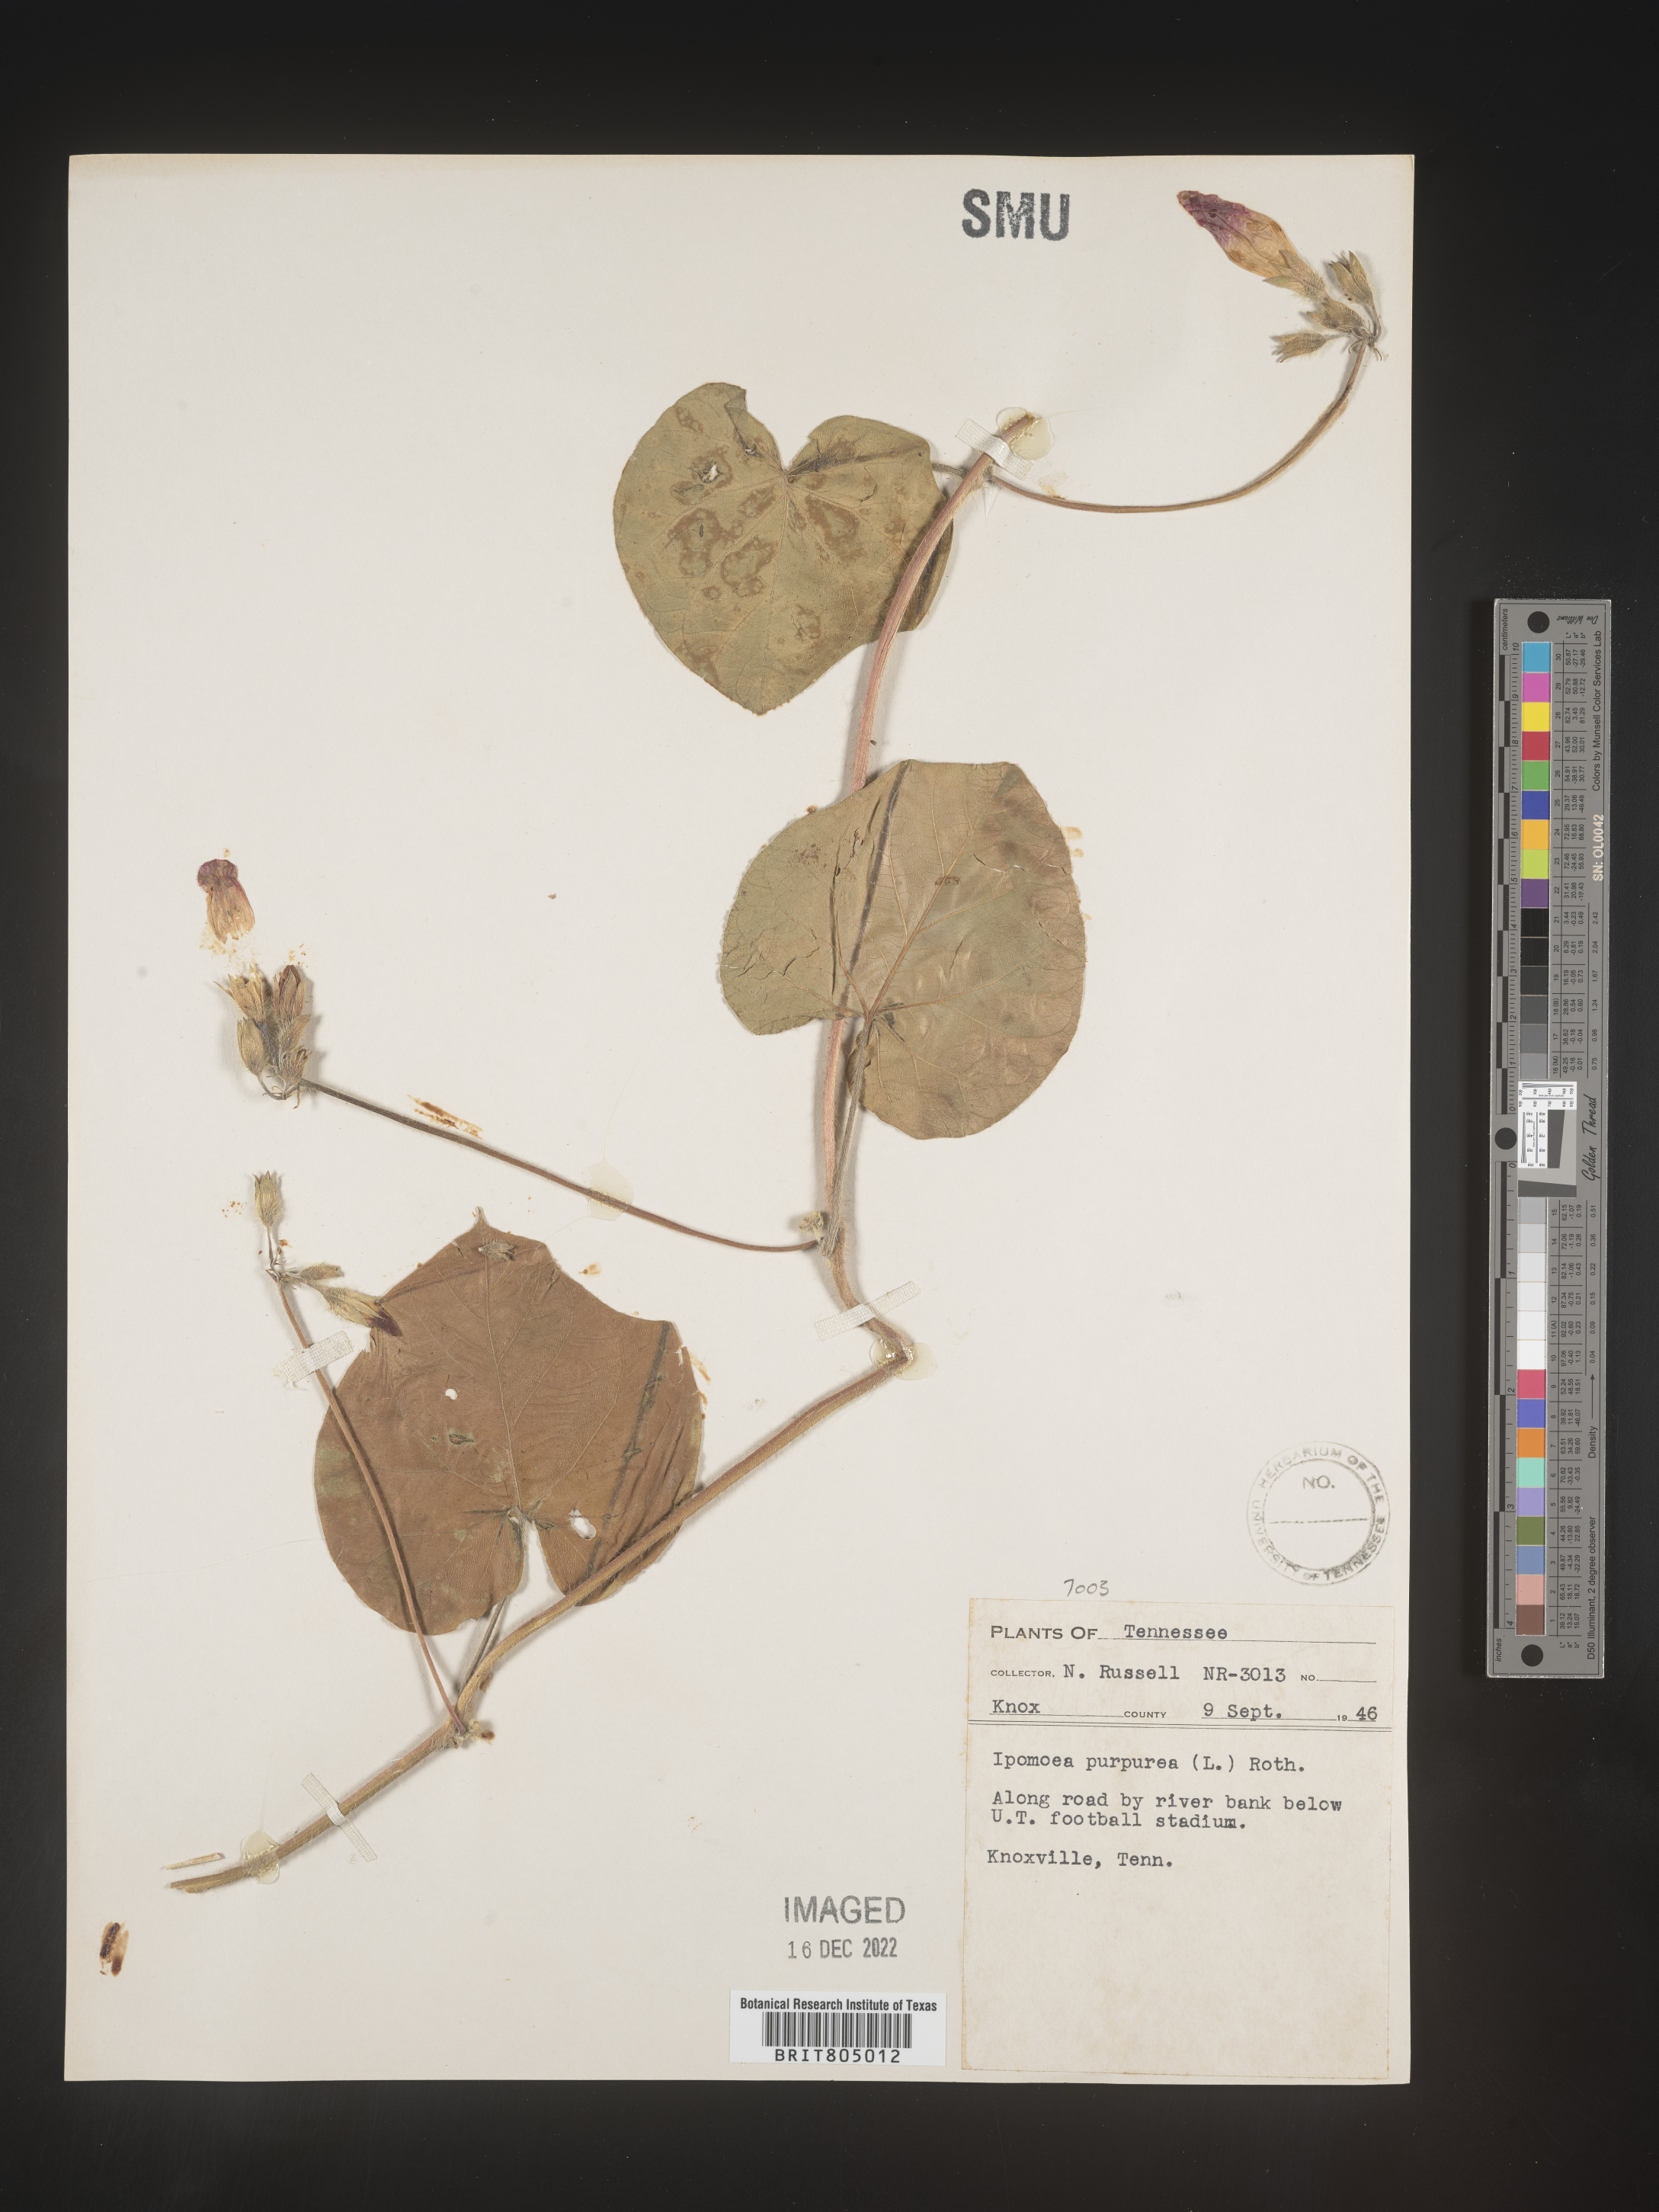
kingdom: Plantae
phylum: Tracheophyta
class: Magnoliopsida
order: Solanales
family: Convolvulaceae
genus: Ipomoea
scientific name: Ipomoea purpurea
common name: Common morning-glory
